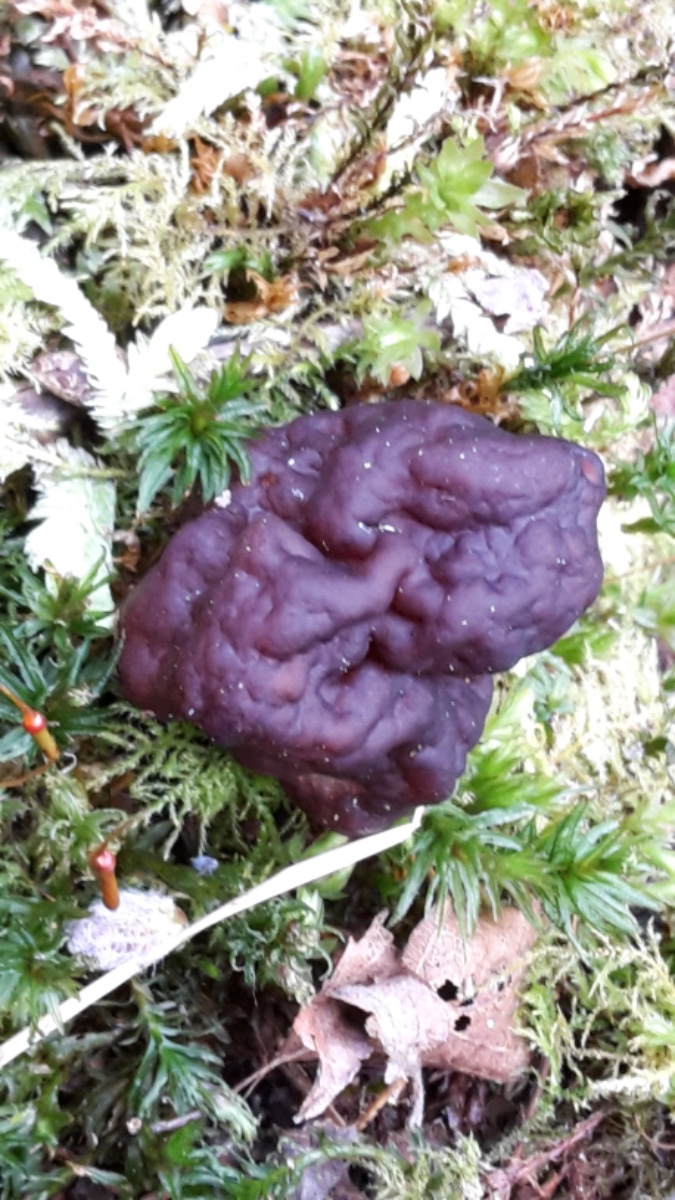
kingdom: Fungi
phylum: Ascomycota
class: Pezizomycetes
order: Pezizales
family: Discinaceae
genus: Gyromitra
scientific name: Gyromitra esculenta
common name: ægte stenmorkel
